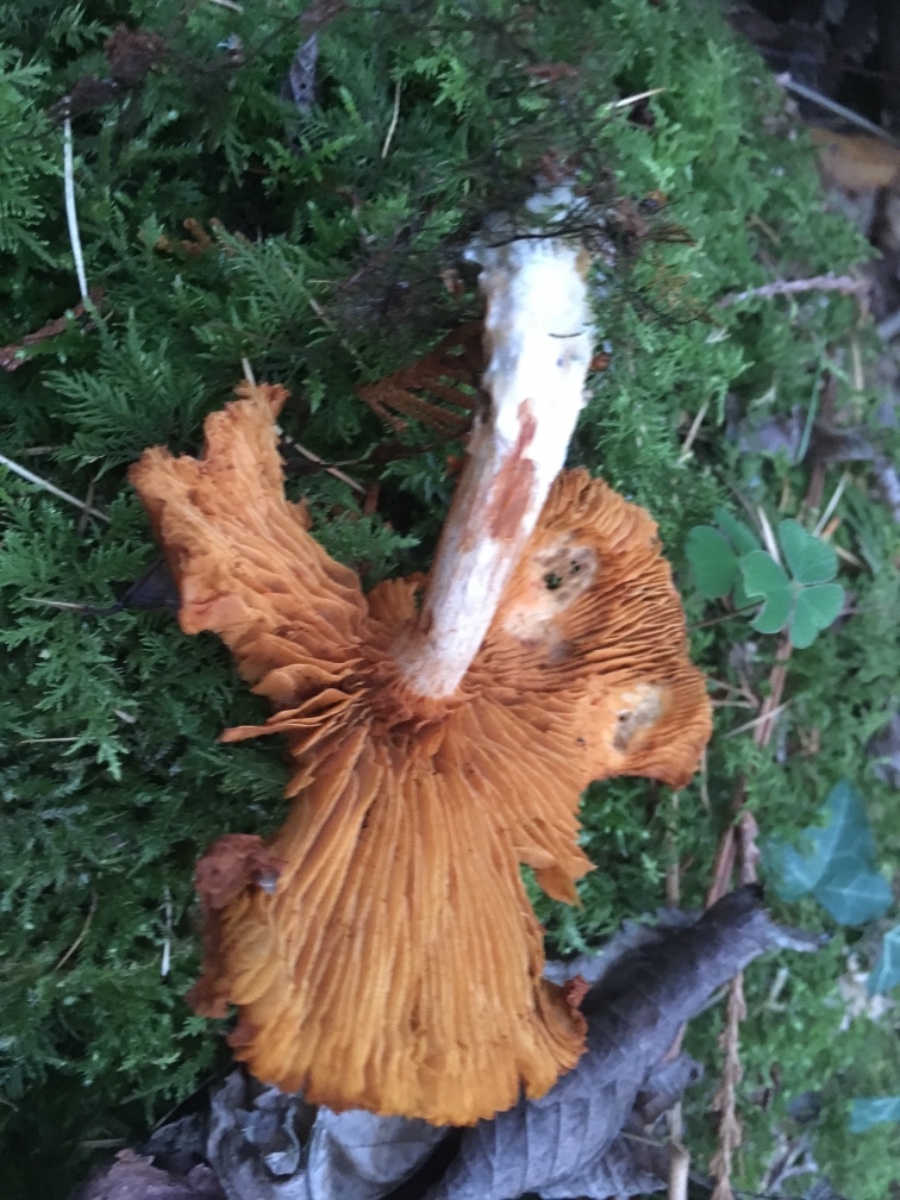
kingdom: Fungi
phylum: Basidiomycota
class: Agaricomycetes
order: Agaricales
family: Cortinariaceae
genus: Cortinarius
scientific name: Cortinarius
